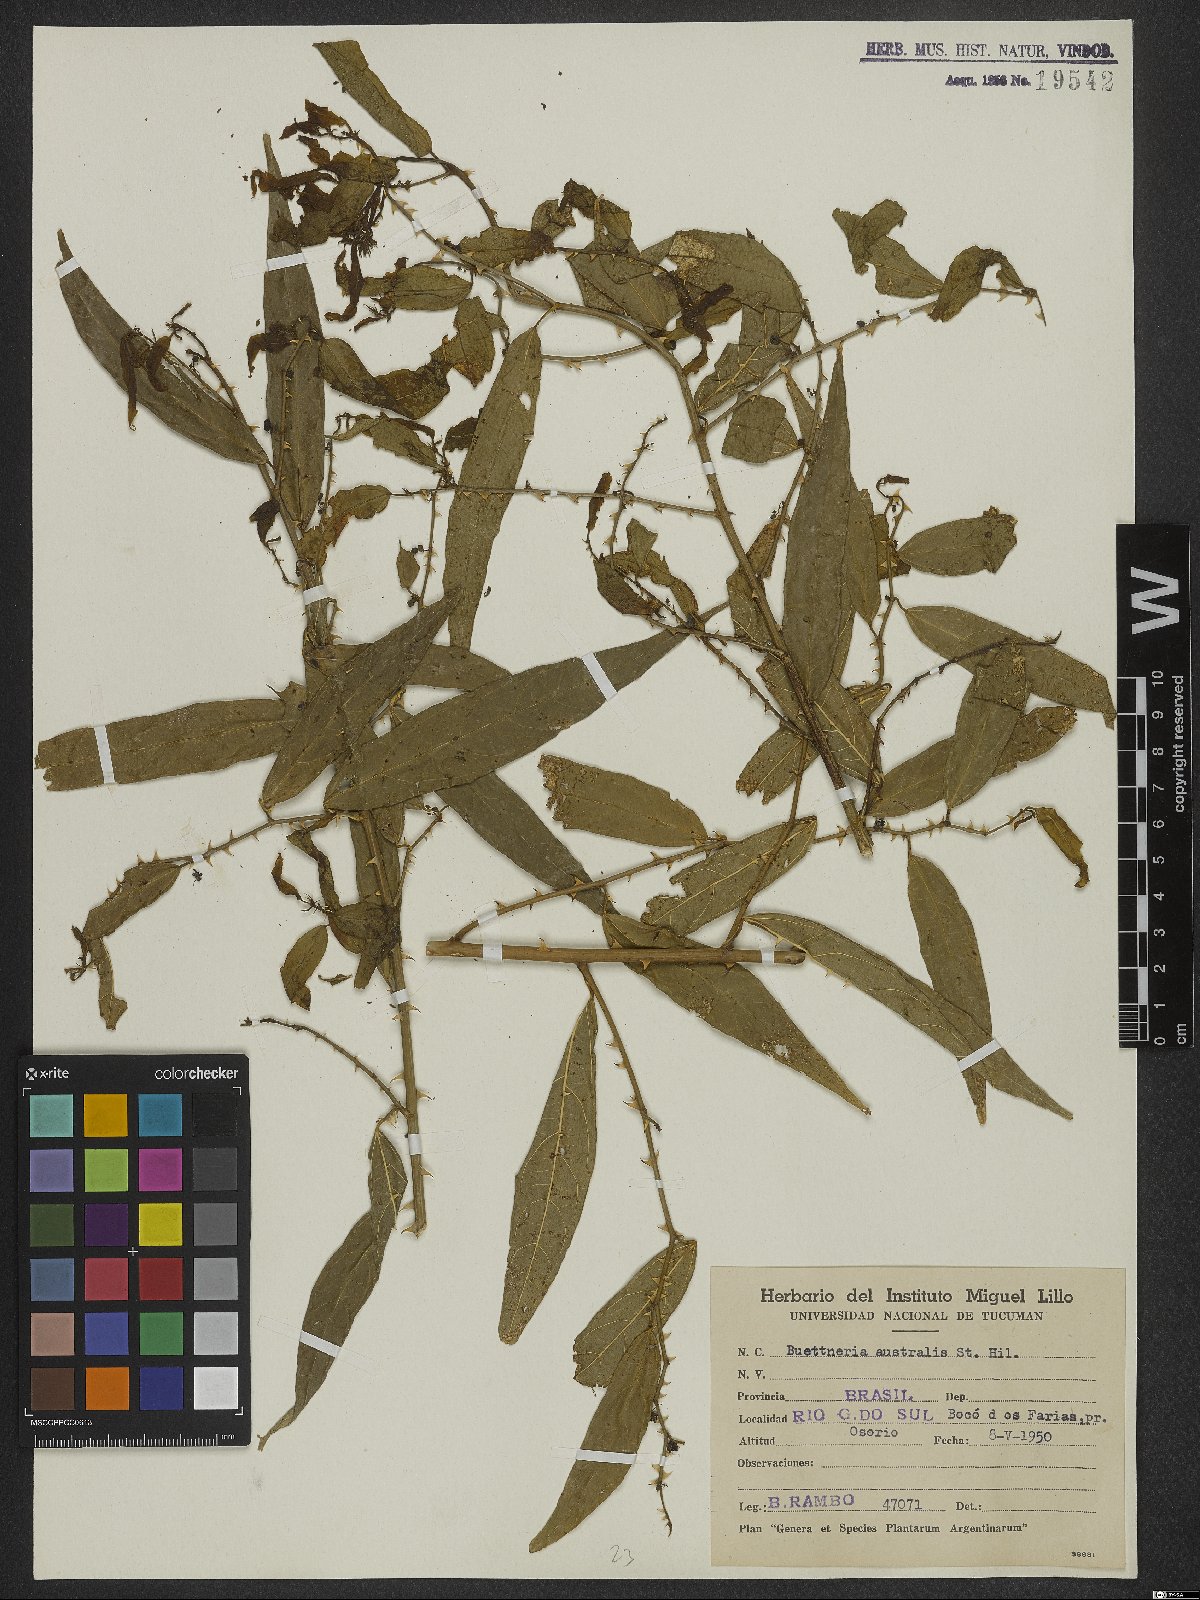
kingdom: Plantae
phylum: Tracheophyta
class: Magnoliopsida
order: Malvales
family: Malvaceae
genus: Byttneria
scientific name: Byttneria australis
